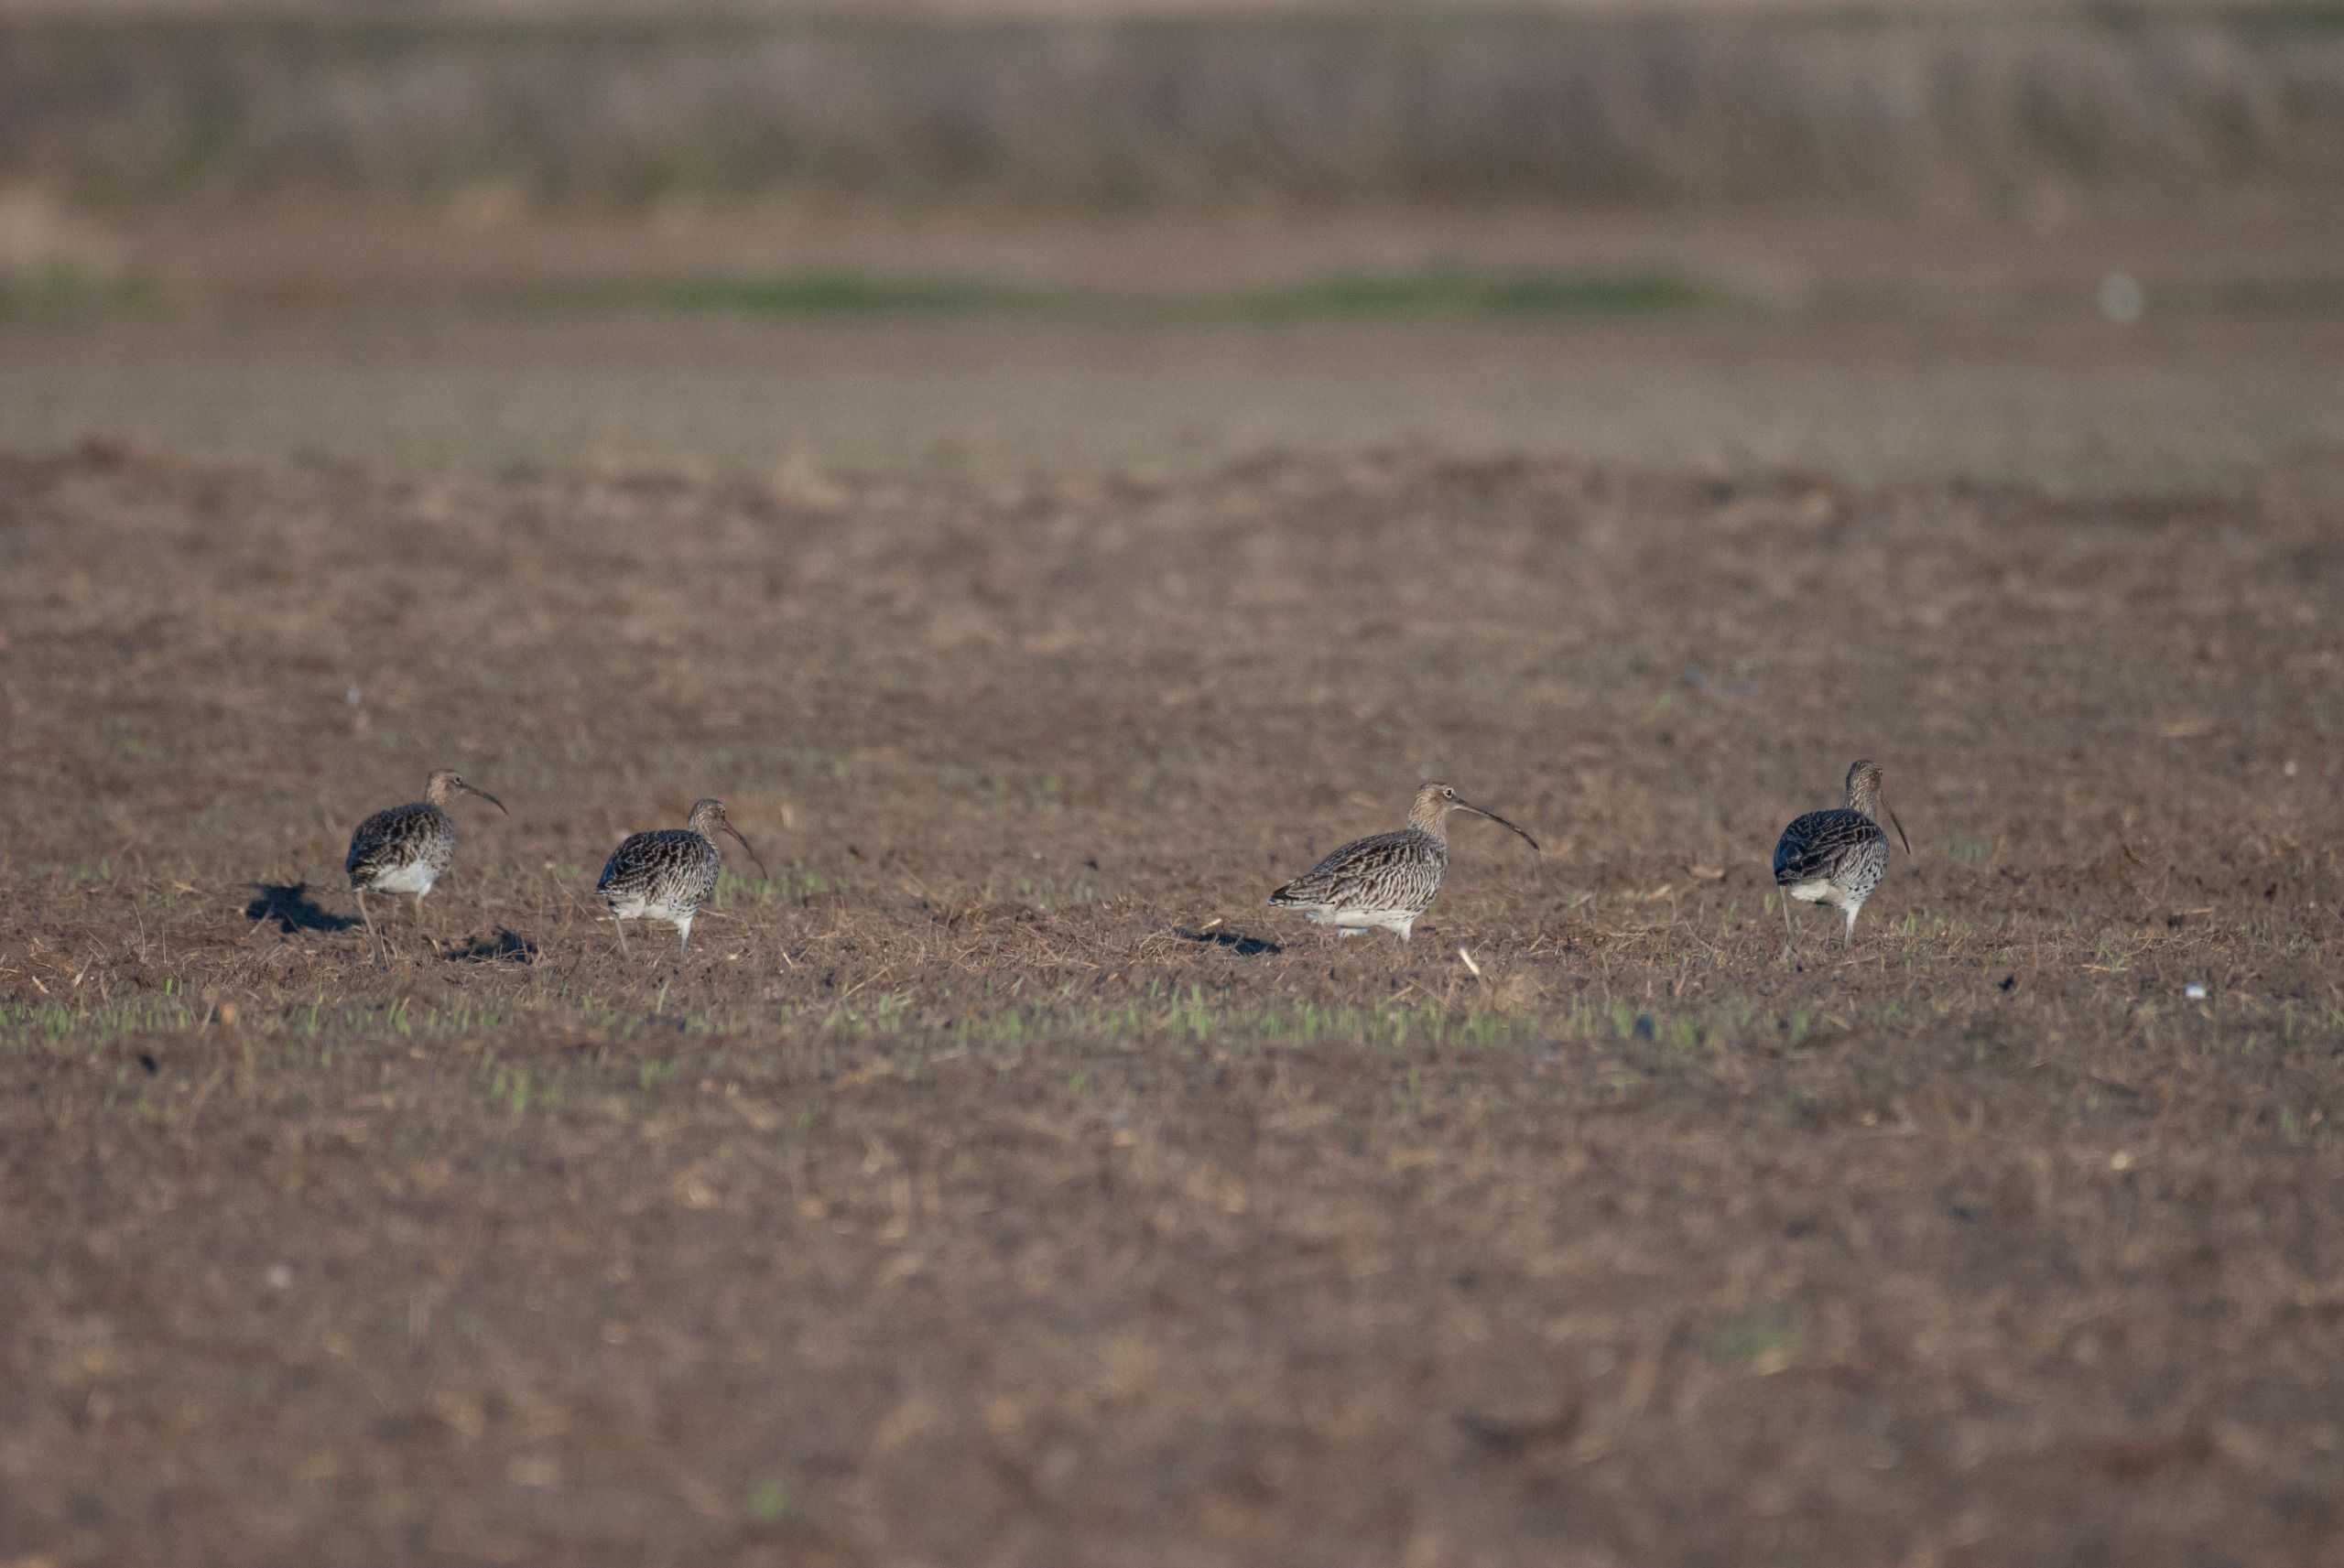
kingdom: Animalia
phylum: Chordata
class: Aves
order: Charadriiformes
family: Scolopacidae
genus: Numenius
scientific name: Numenius arquata
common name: Storspove
